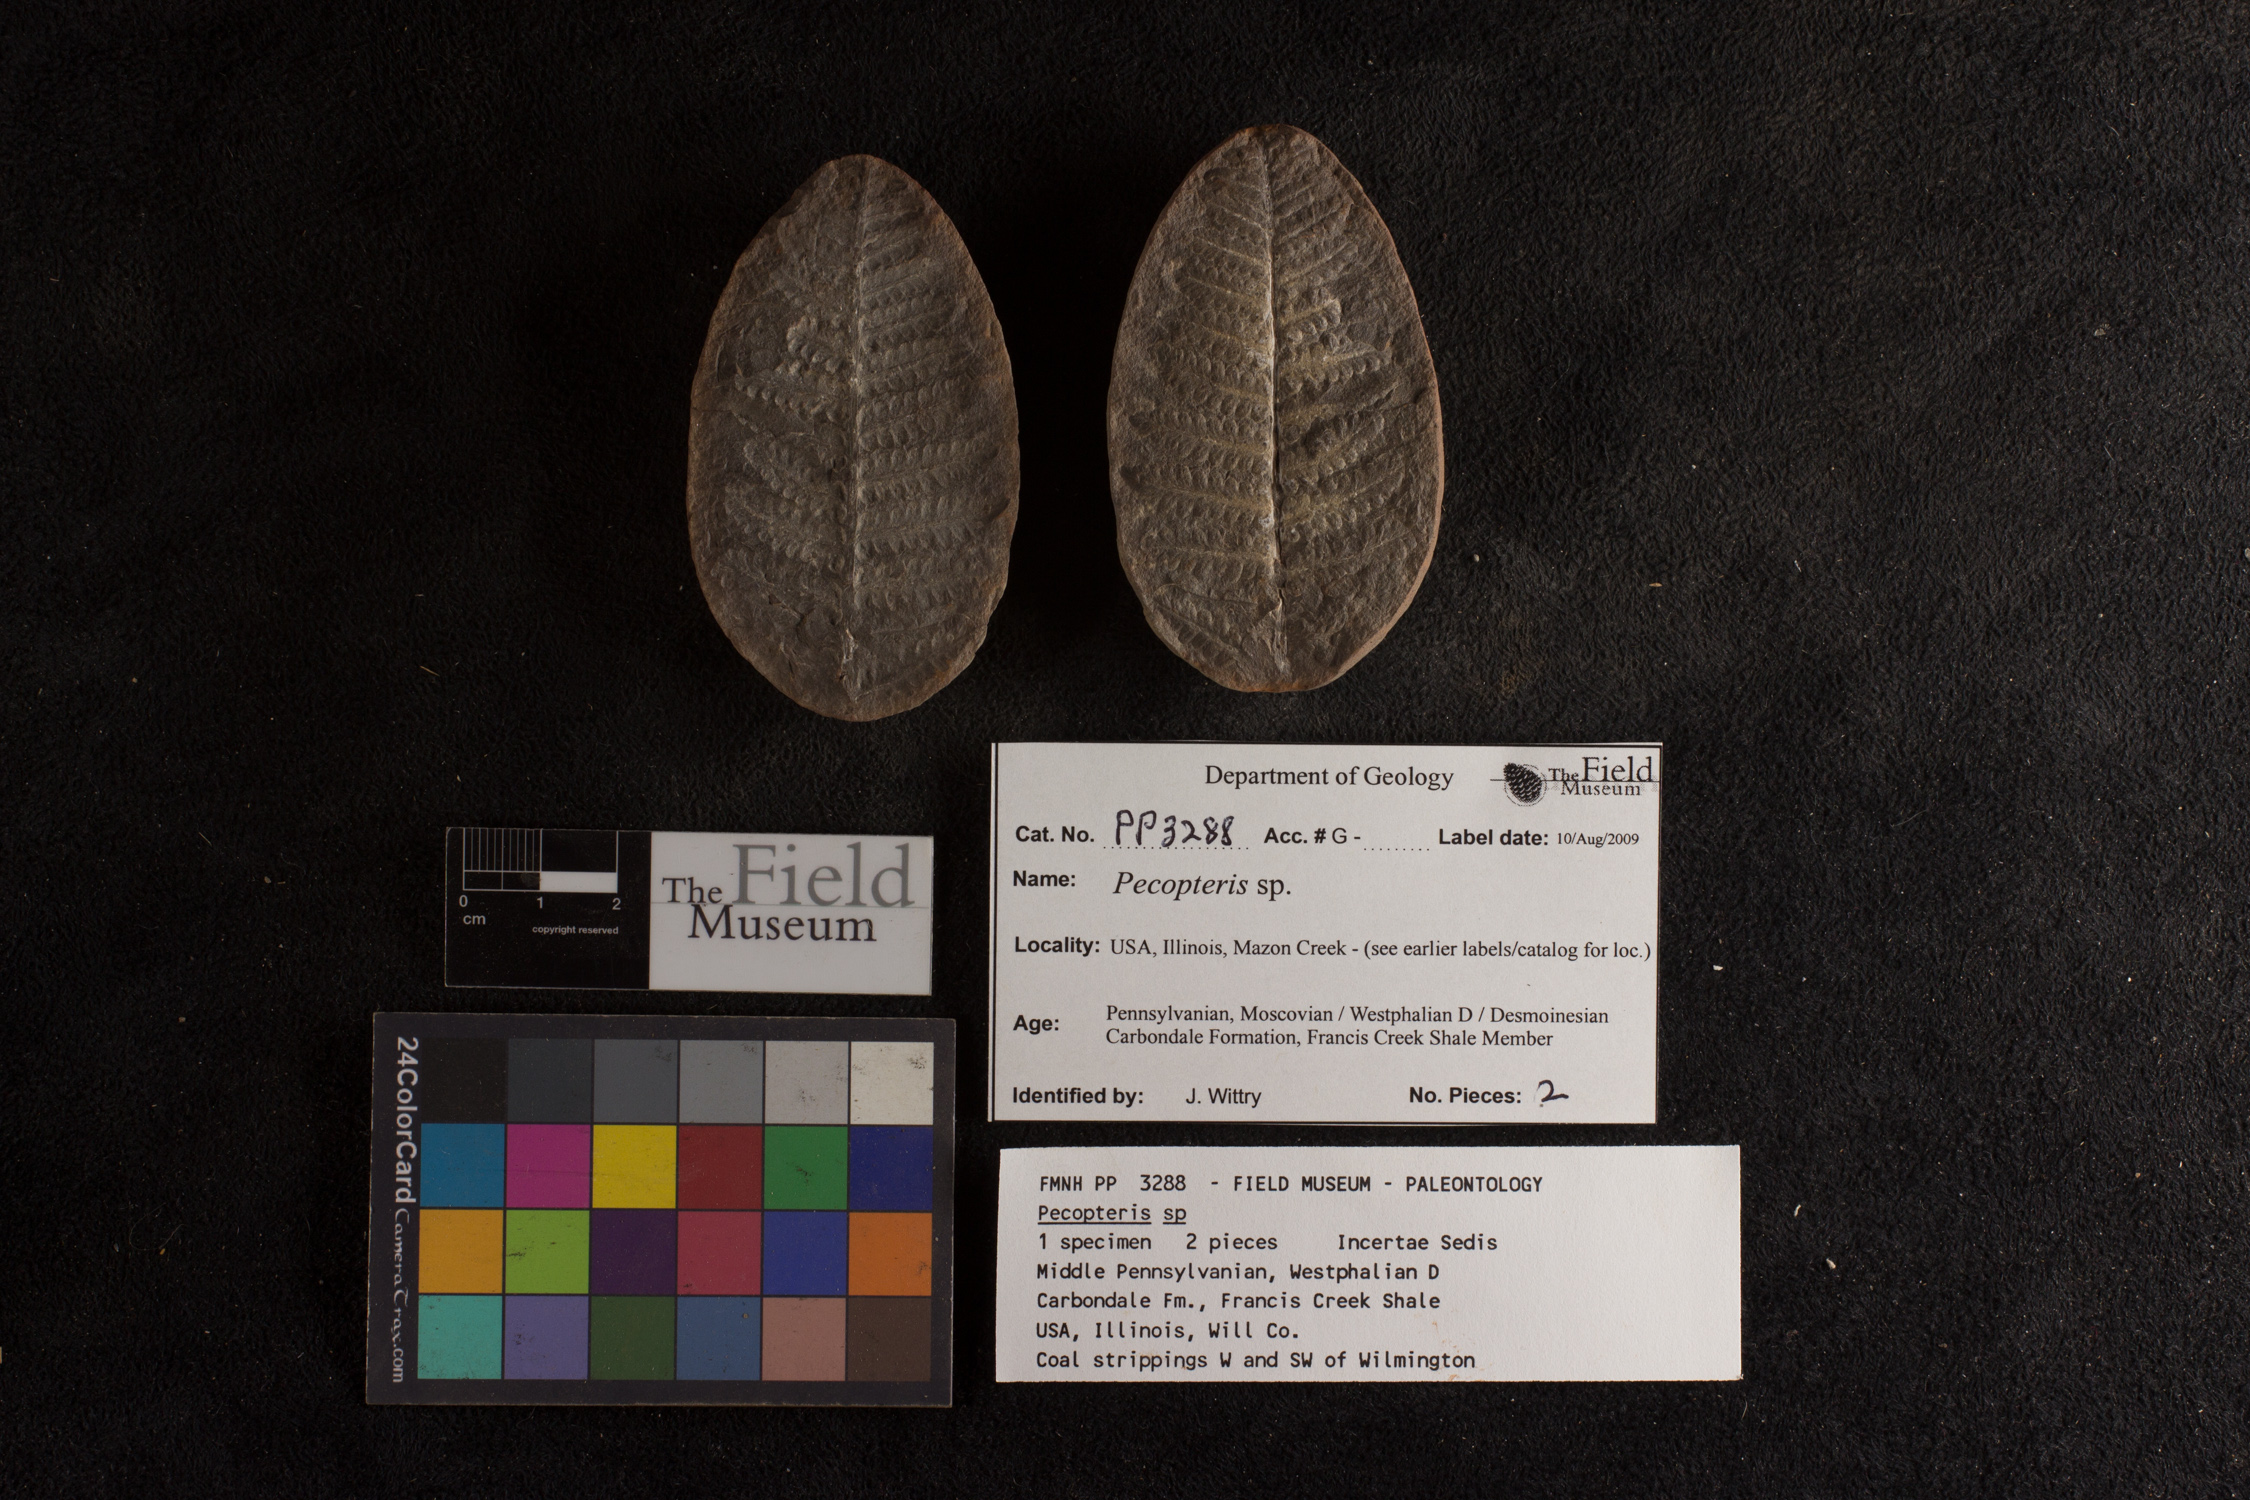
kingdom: Plantae
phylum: Tracheophyta
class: Polypodiopsida
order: Marattiales
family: Asterothecaceae
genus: Pecopteris
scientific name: Pecopteris
